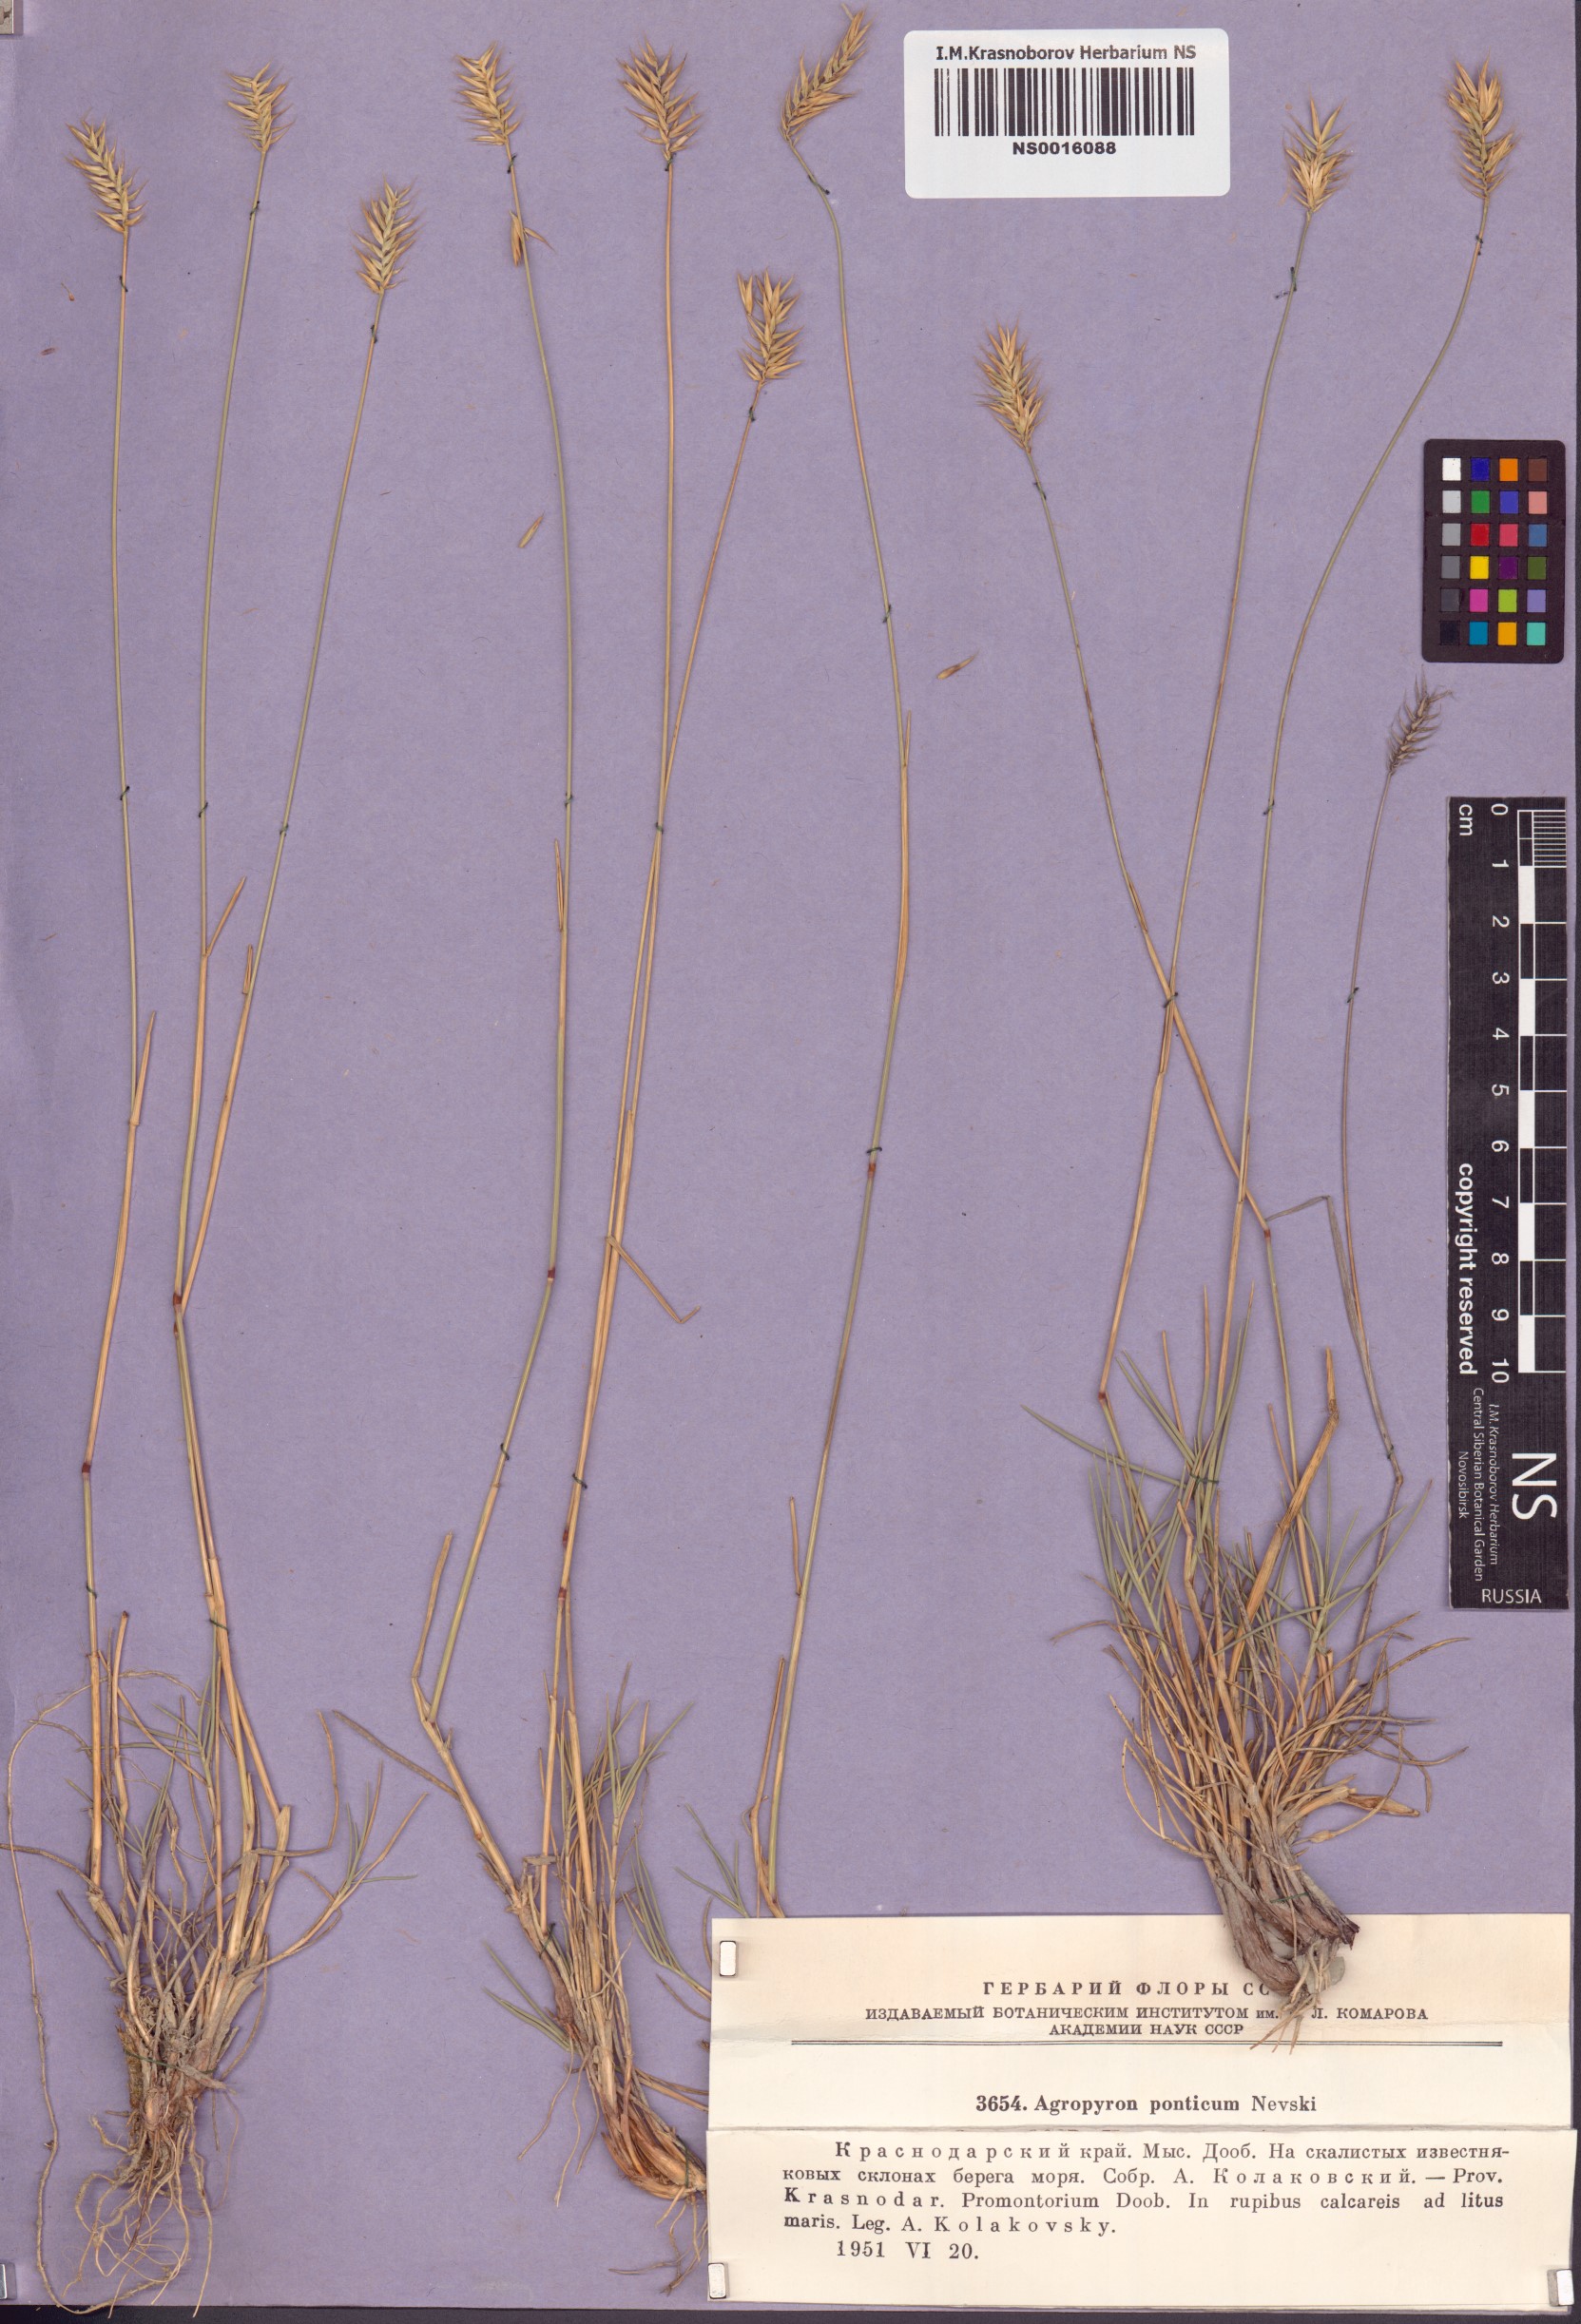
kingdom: Plantae
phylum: Tracheophyta
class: Liliopsida
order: Poales
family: Poaceae
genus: Agropyron
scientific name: Agropyron cristatum
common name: Crested wheatgrass
